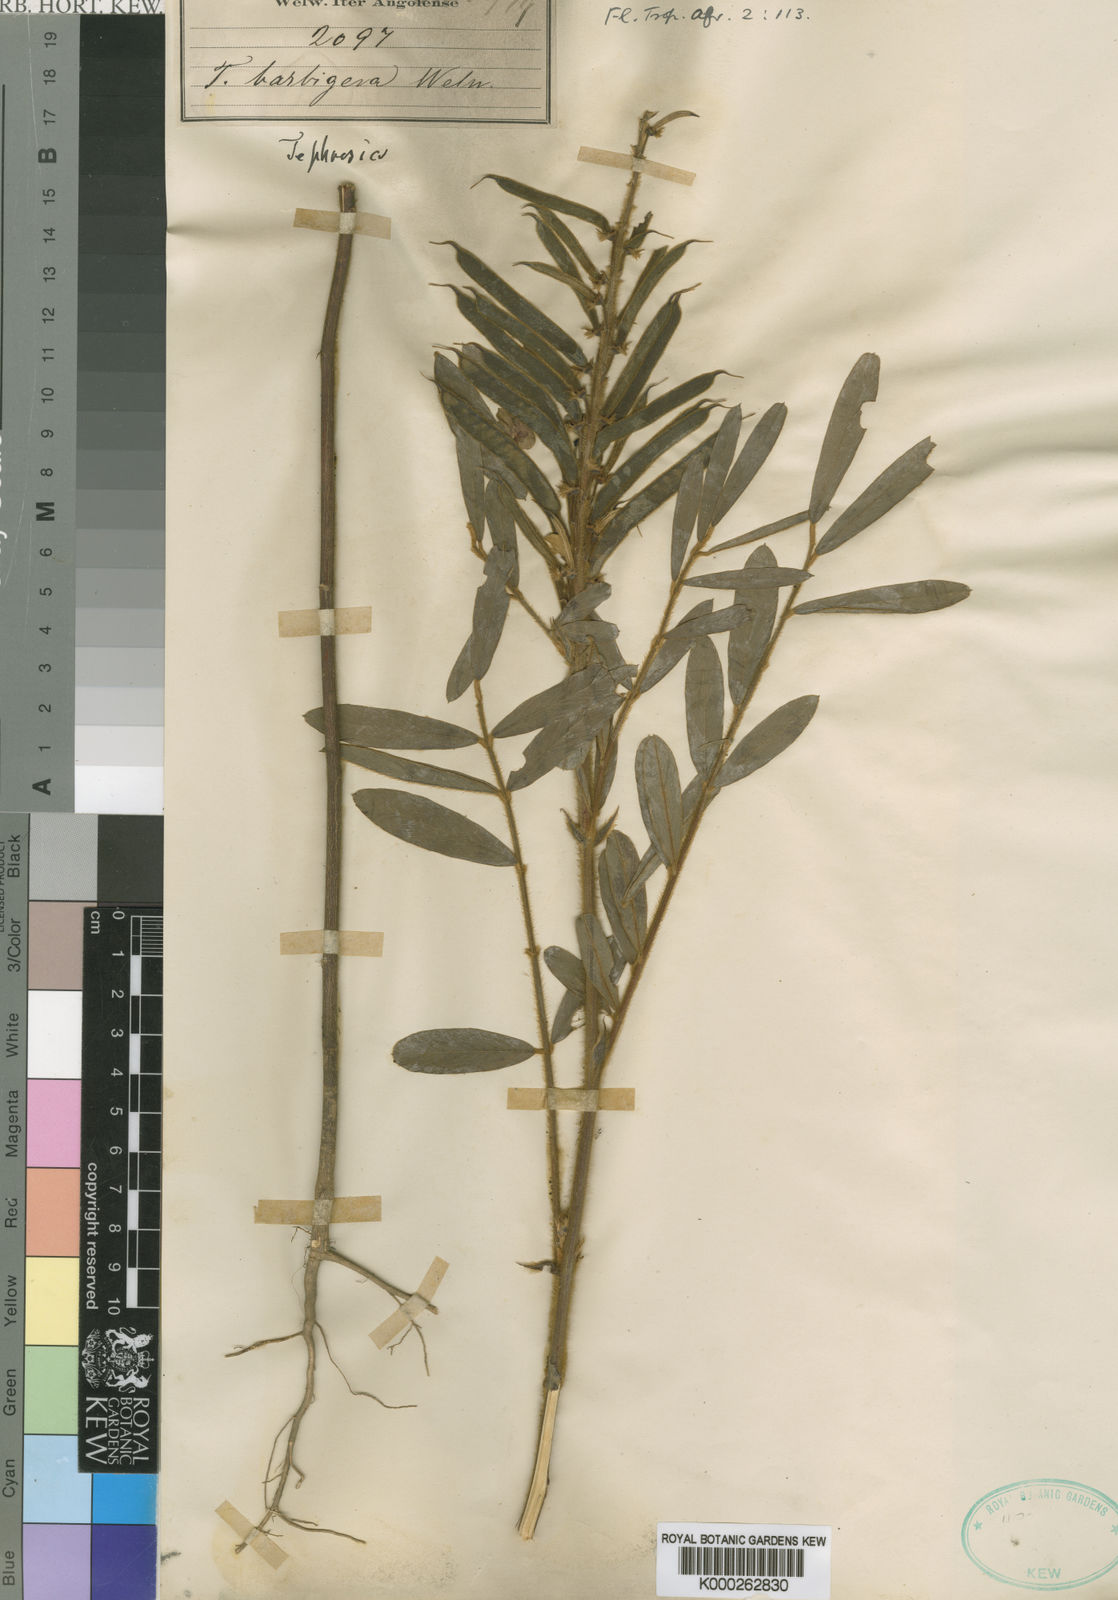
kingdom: Plantae
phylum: Tracheophyta
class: Magnoliopsida
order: Fabales
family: Fabaceae
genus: Tephrosia
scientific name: Tephrosia
